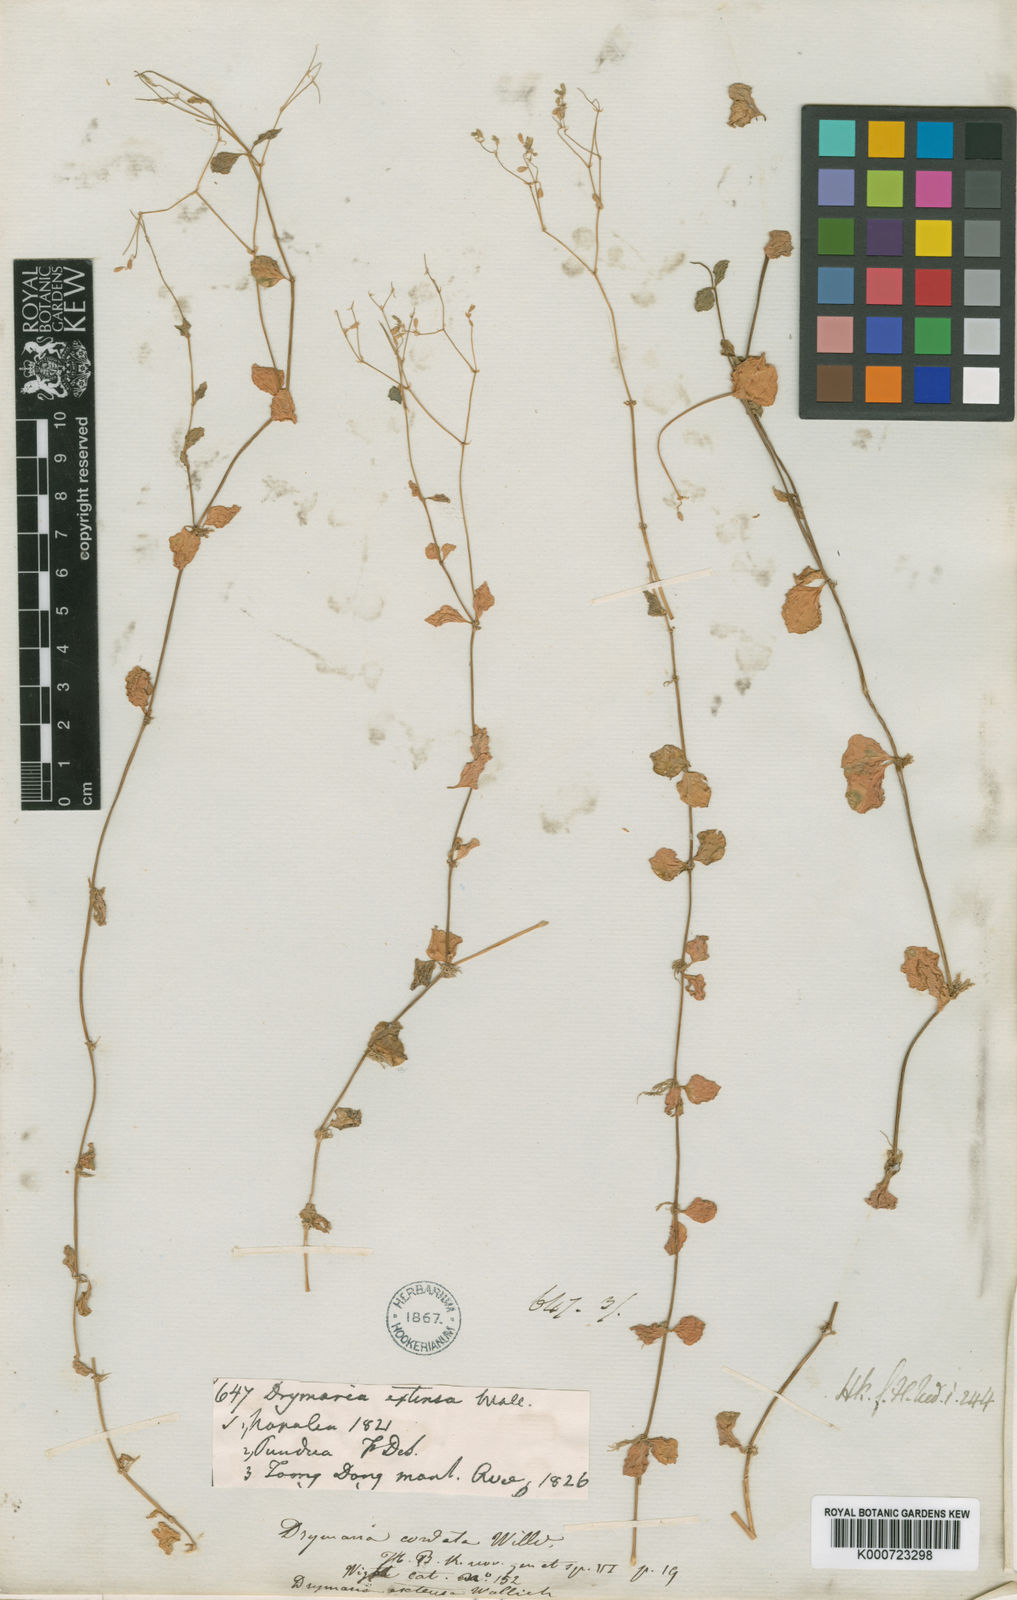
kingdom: Plantae
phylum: Tracheophyta
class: Magnoliopsida
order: Caryophyllales
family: Caryophyllaceae
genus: Drymaria
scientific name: Drymaria cordata
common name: Whitesnow
